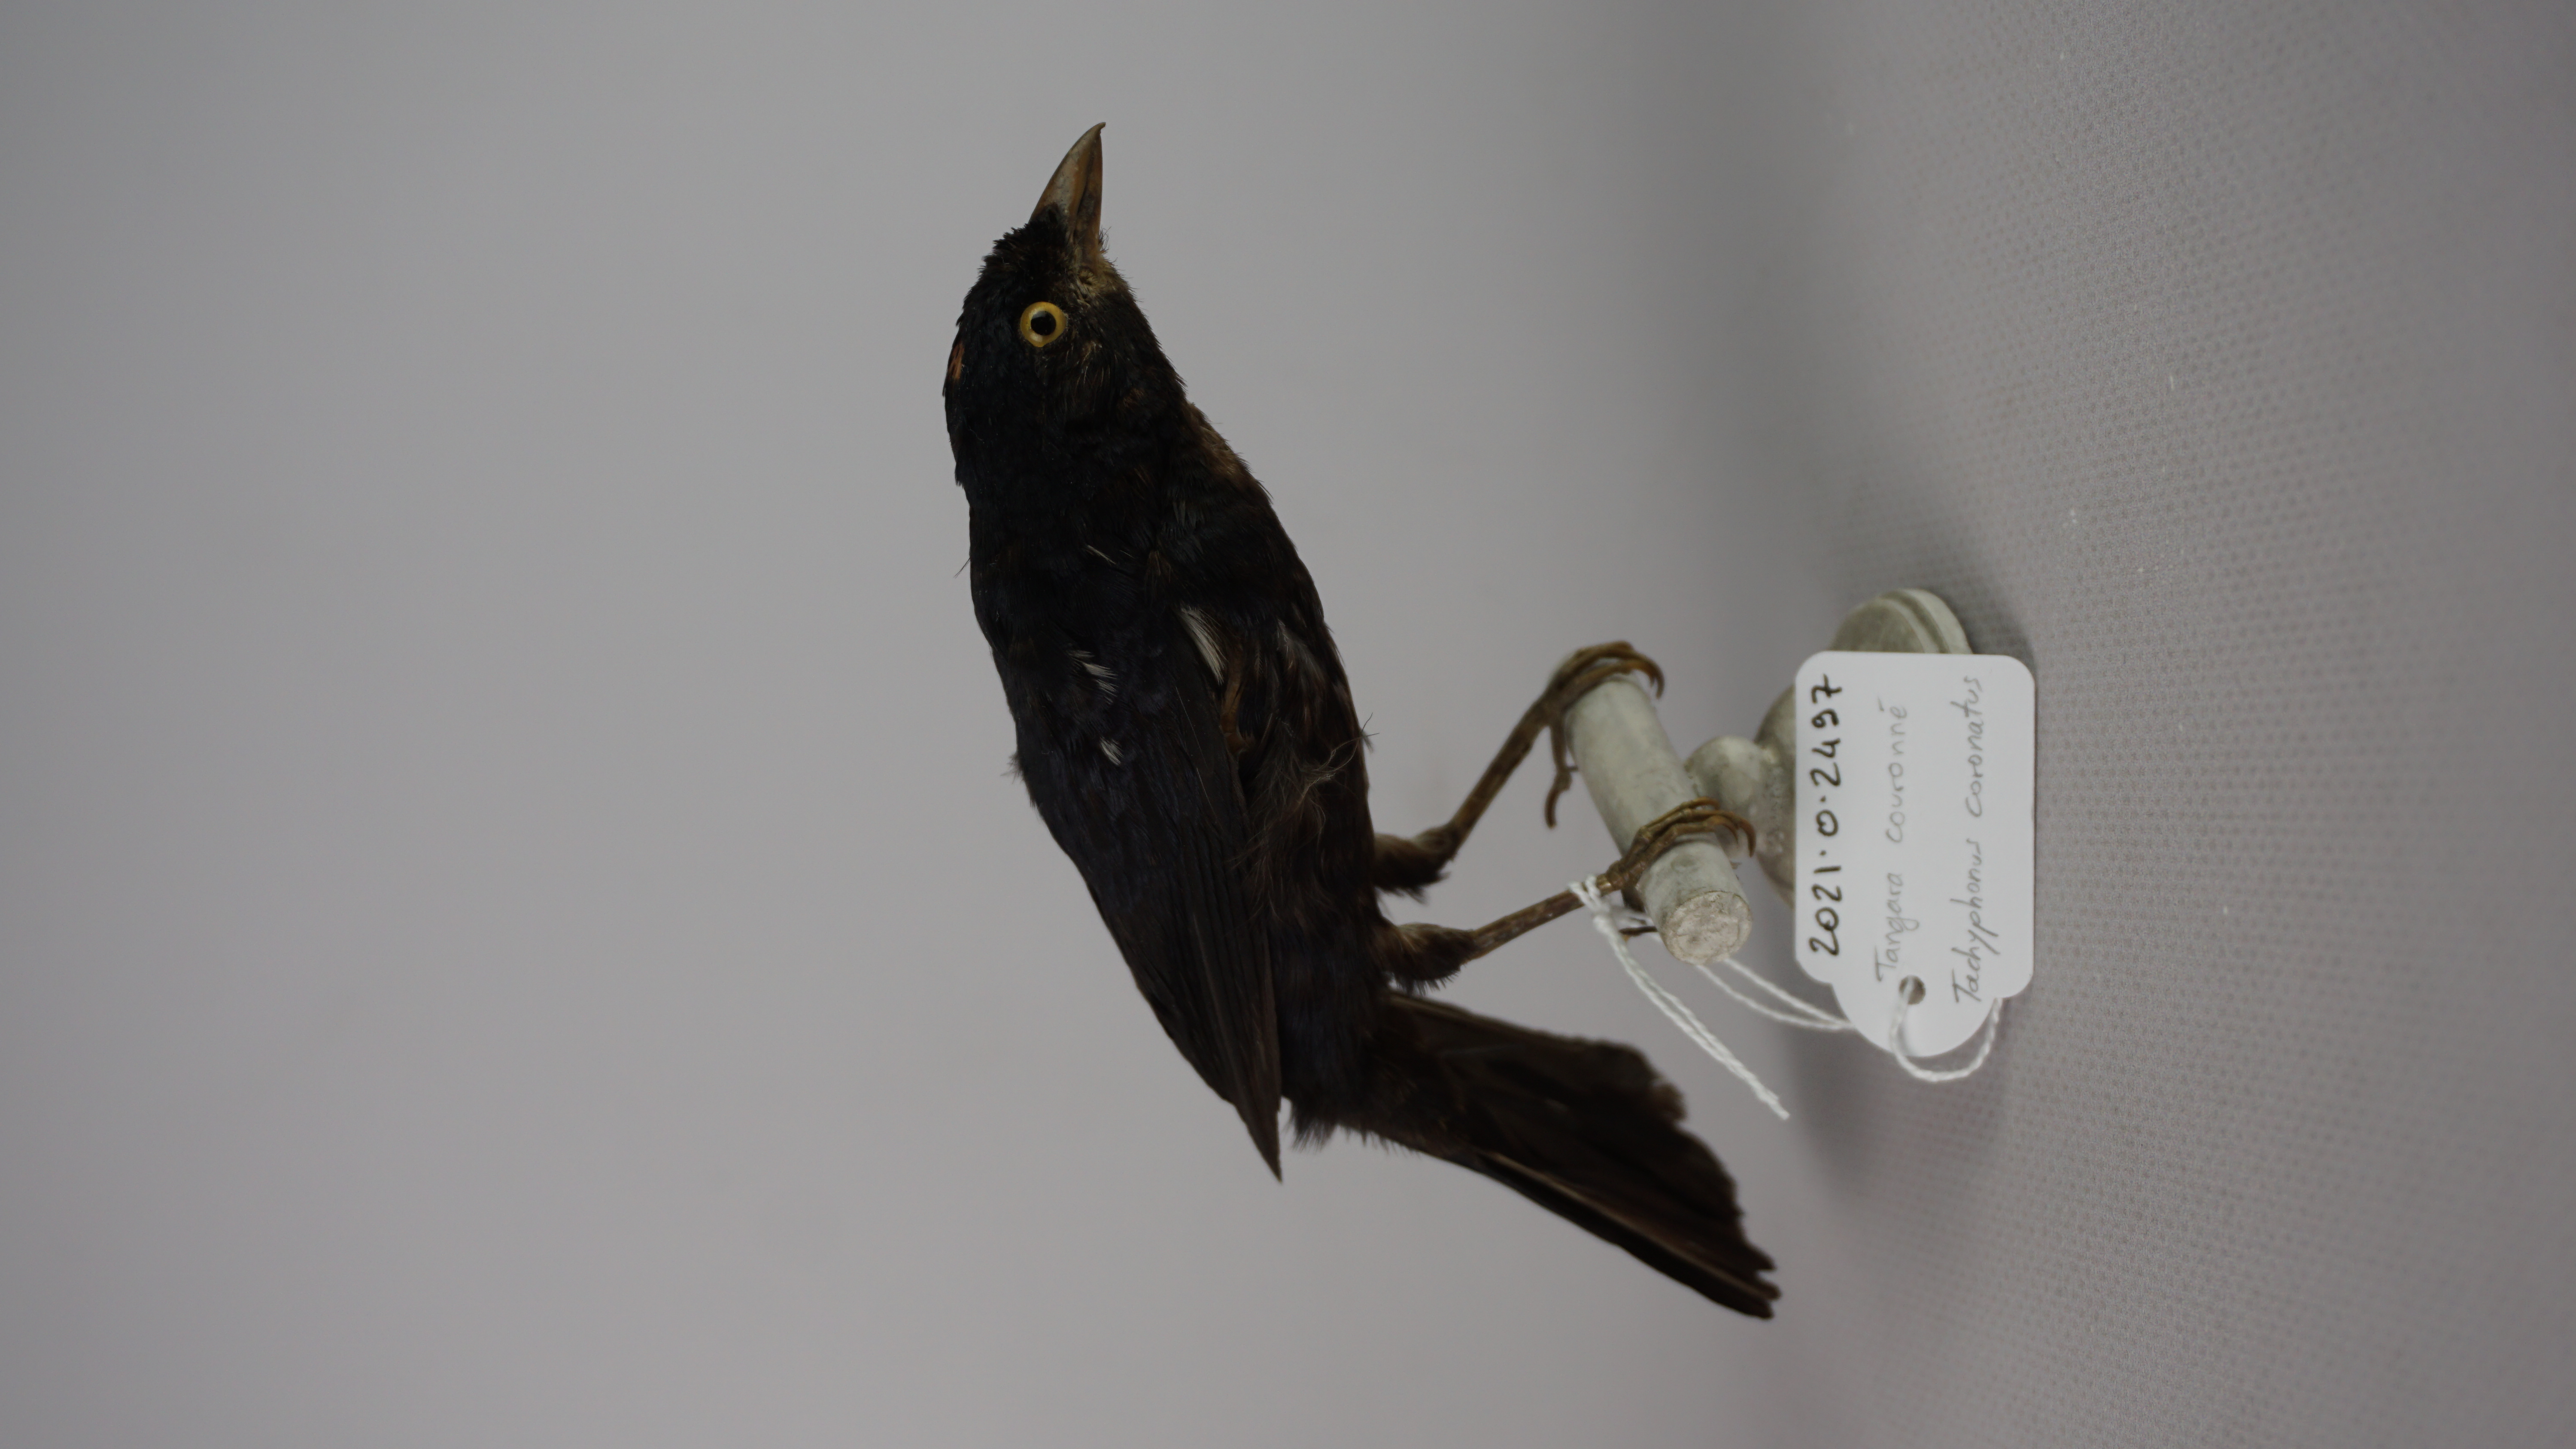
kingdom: Animalia
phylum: Chordata
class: Aves
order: Passeriformes
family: Thraupidae
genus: Tachyphonus
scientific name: Tachyphonus coronatus
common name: Ruby-crowned tanager
